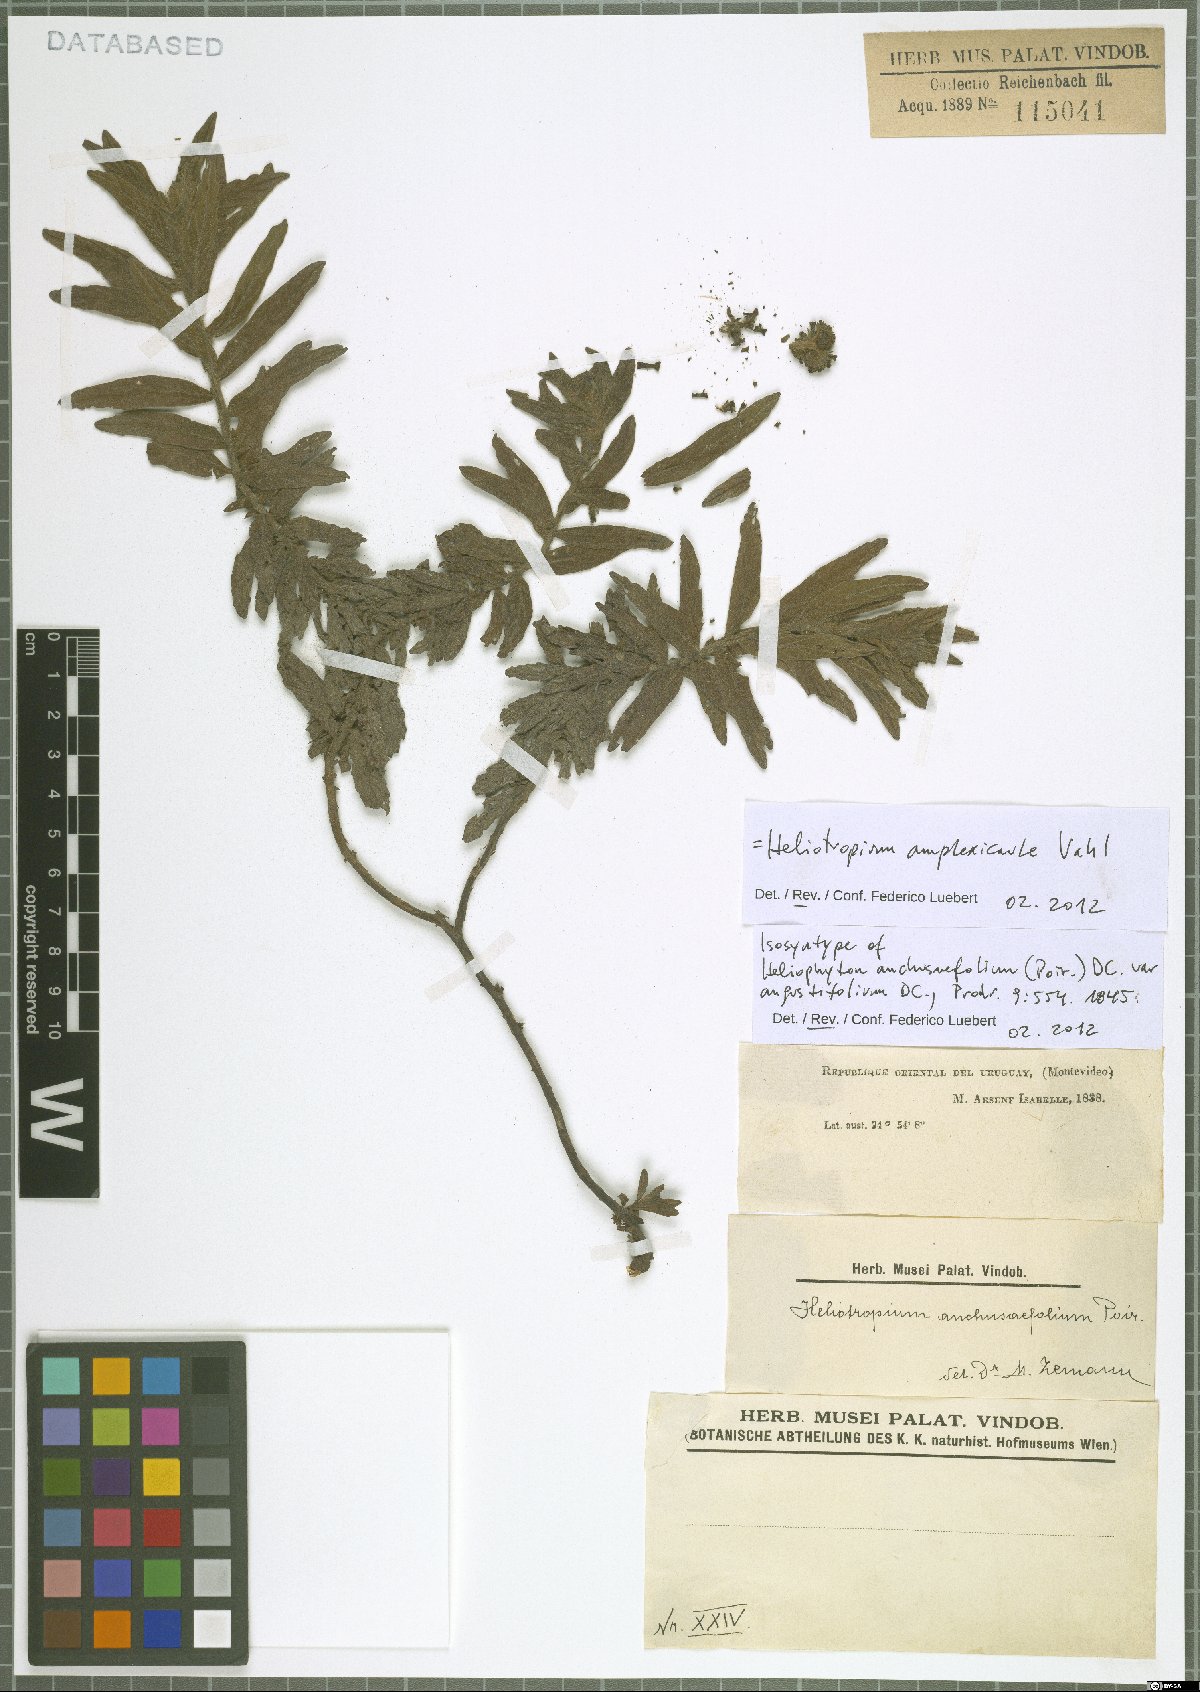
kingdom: Plantae
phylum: Tracheophyta
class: Magnoliopsida
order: Boraginales
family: Heliotropiaceae
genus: Heliotropium
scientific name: Heliotropium amplexicaule
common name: Clasping heliotrope
